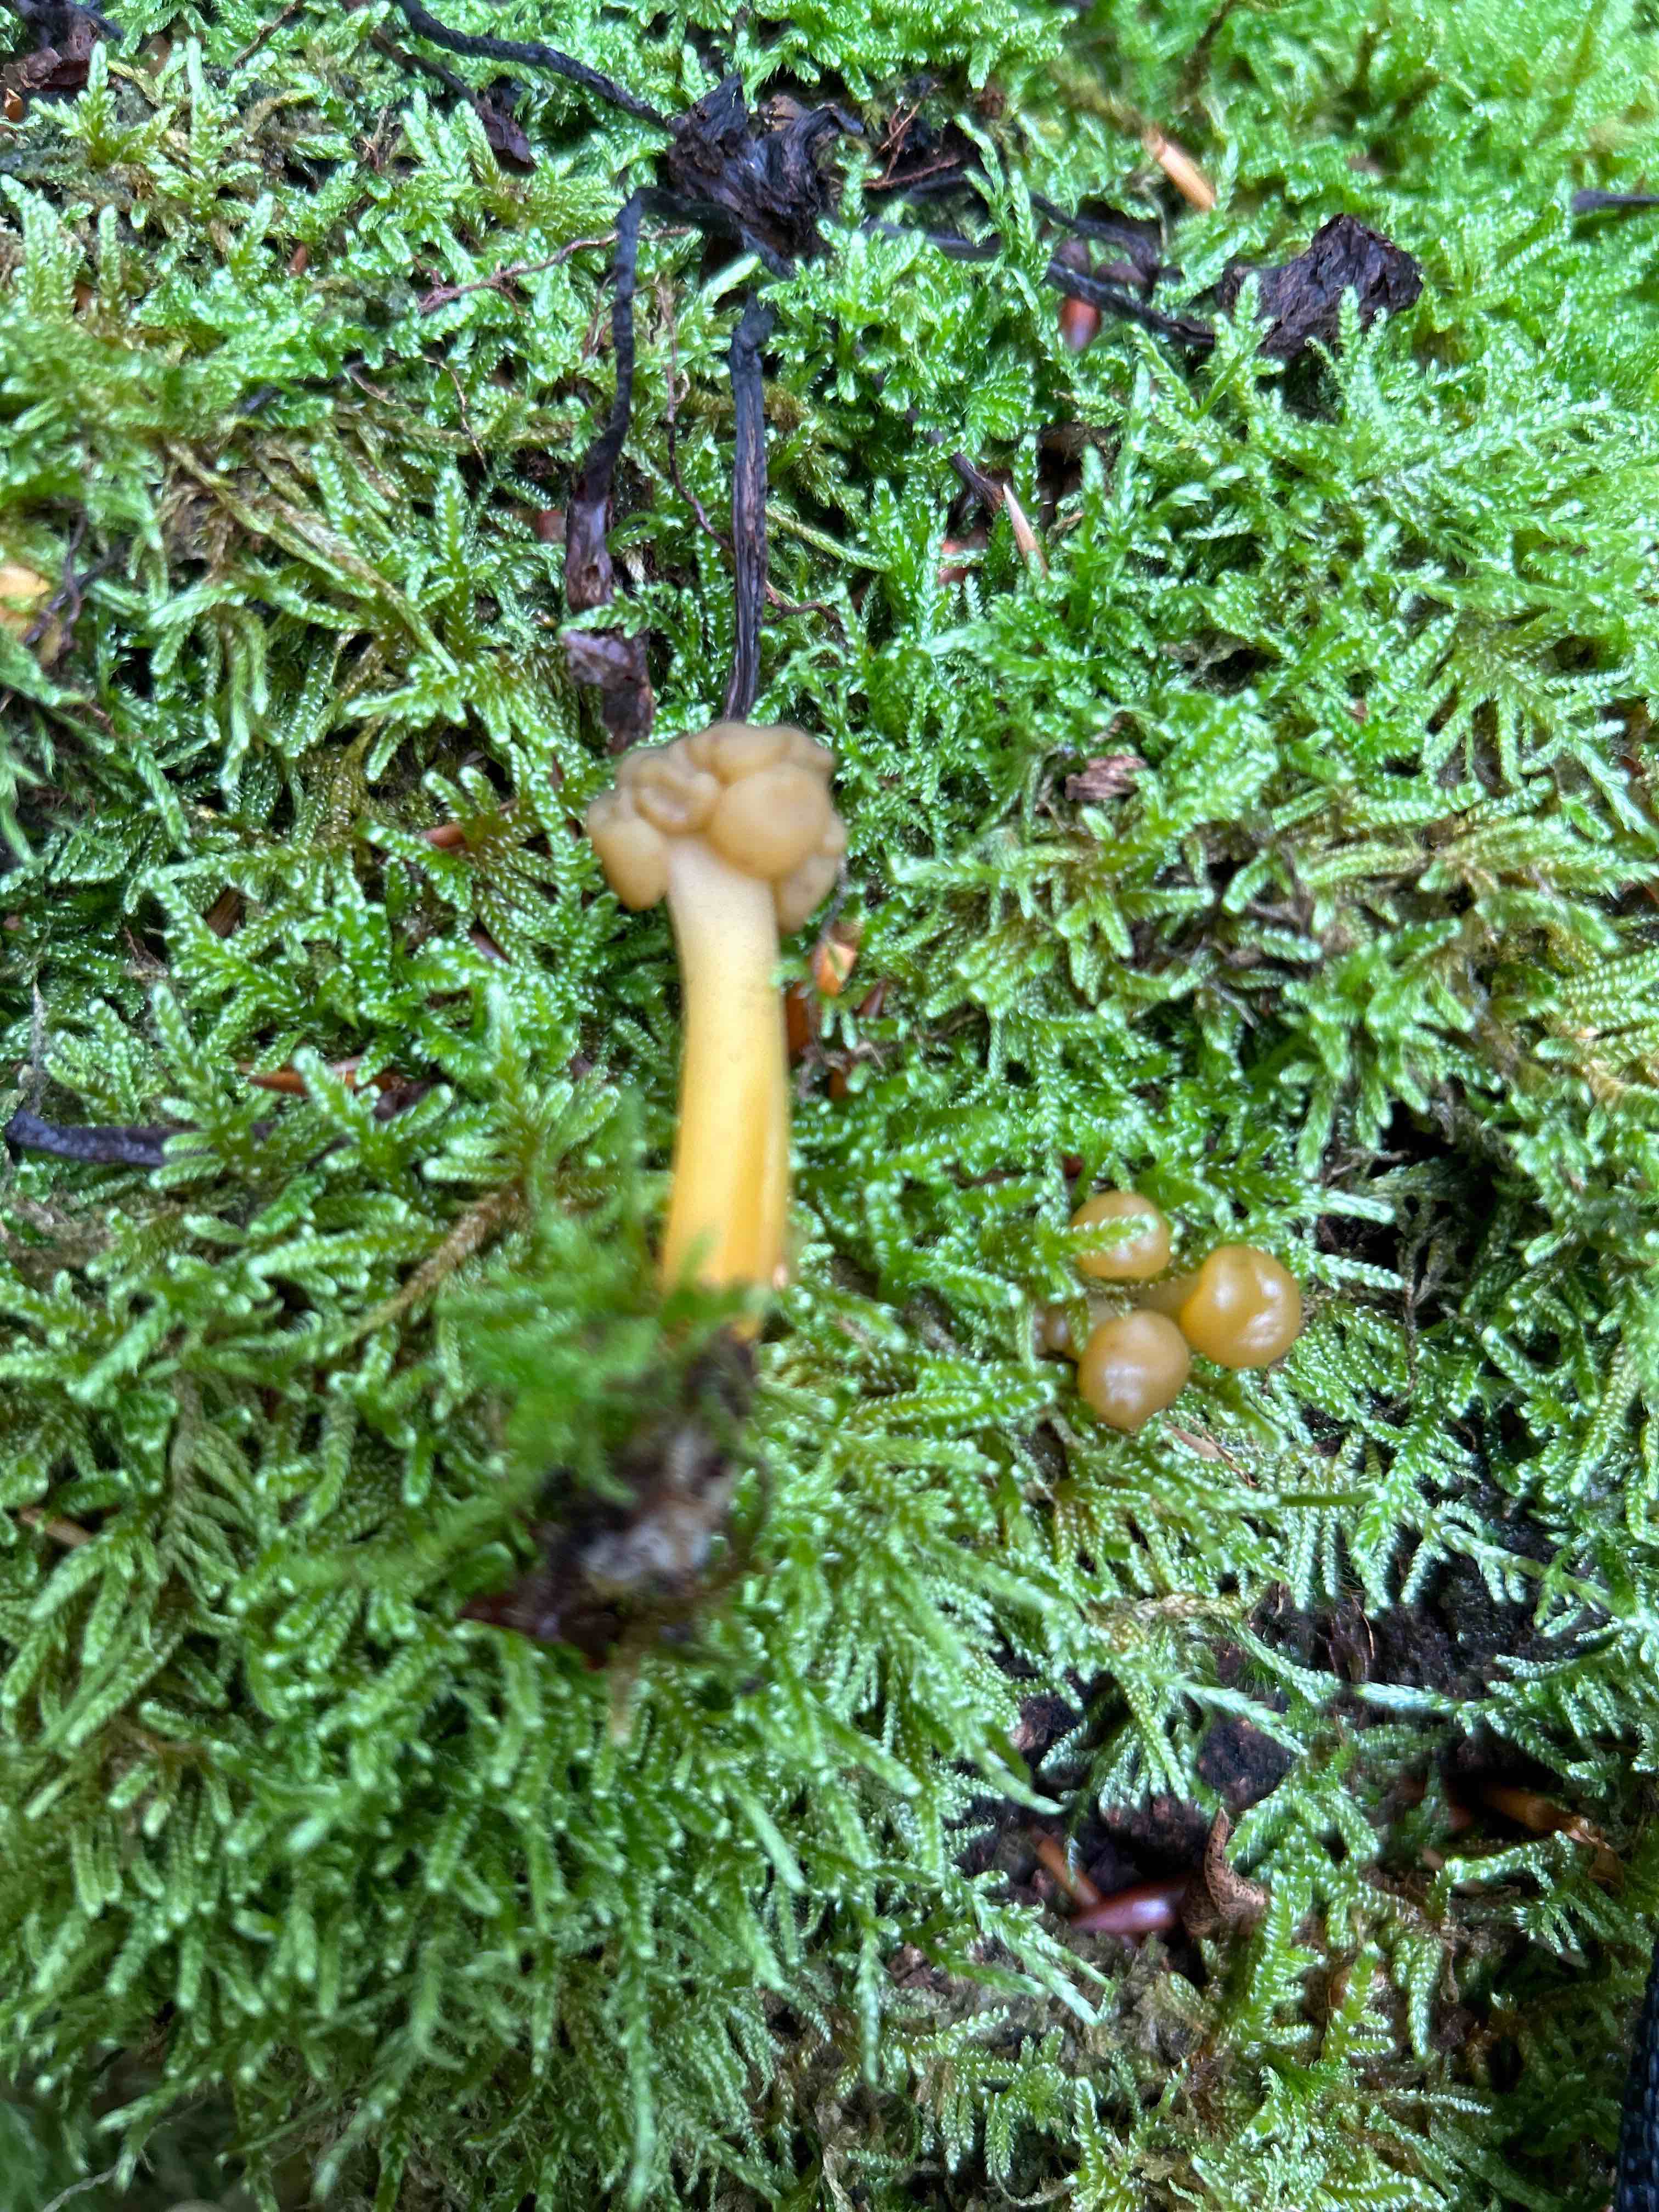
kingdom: Fungi
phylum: Ascomycota
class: Leotiomycetes
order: Leotiales
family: Leotiaceae
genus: Leotia
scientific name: Leotia lubrica
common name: ravsvamp
